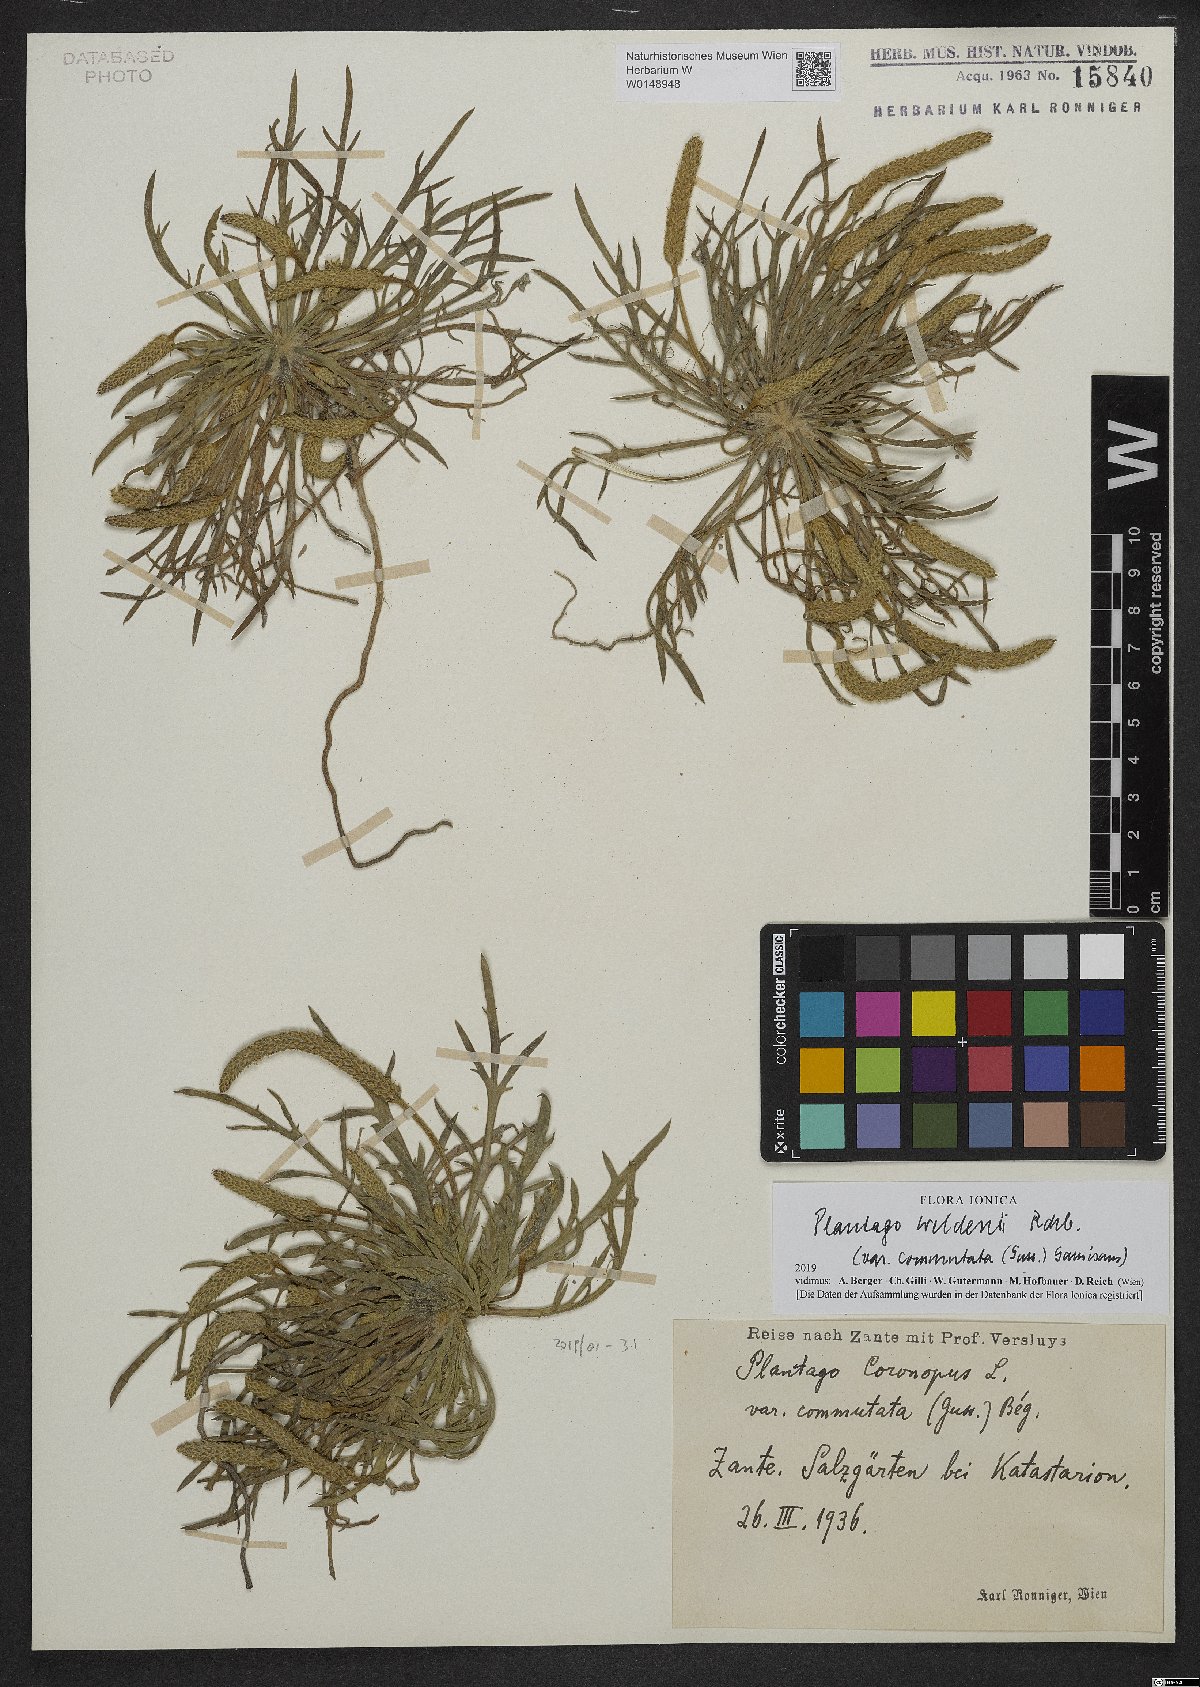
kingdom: Plantae
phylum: Tracheophyta
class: Magnoliopsida
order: Lamiales
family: Plantaginaceae
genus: Plantago
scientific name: Plantago weldenii
